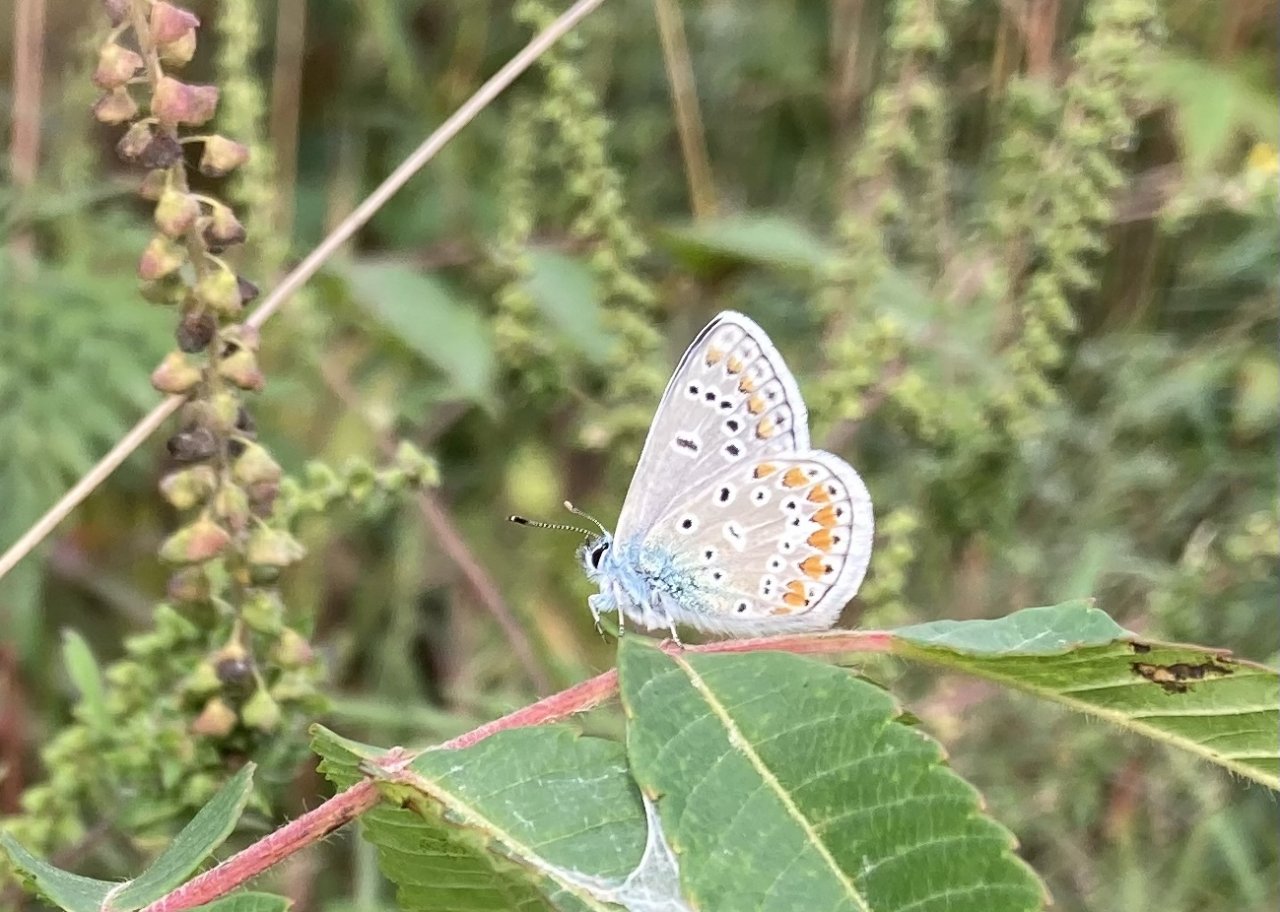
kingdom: Animalia
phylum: Arthropoda
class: Insecta
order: Lepidoptera
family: Lycaenidae
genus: Polyommatus
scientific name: Polyommatus icarus
